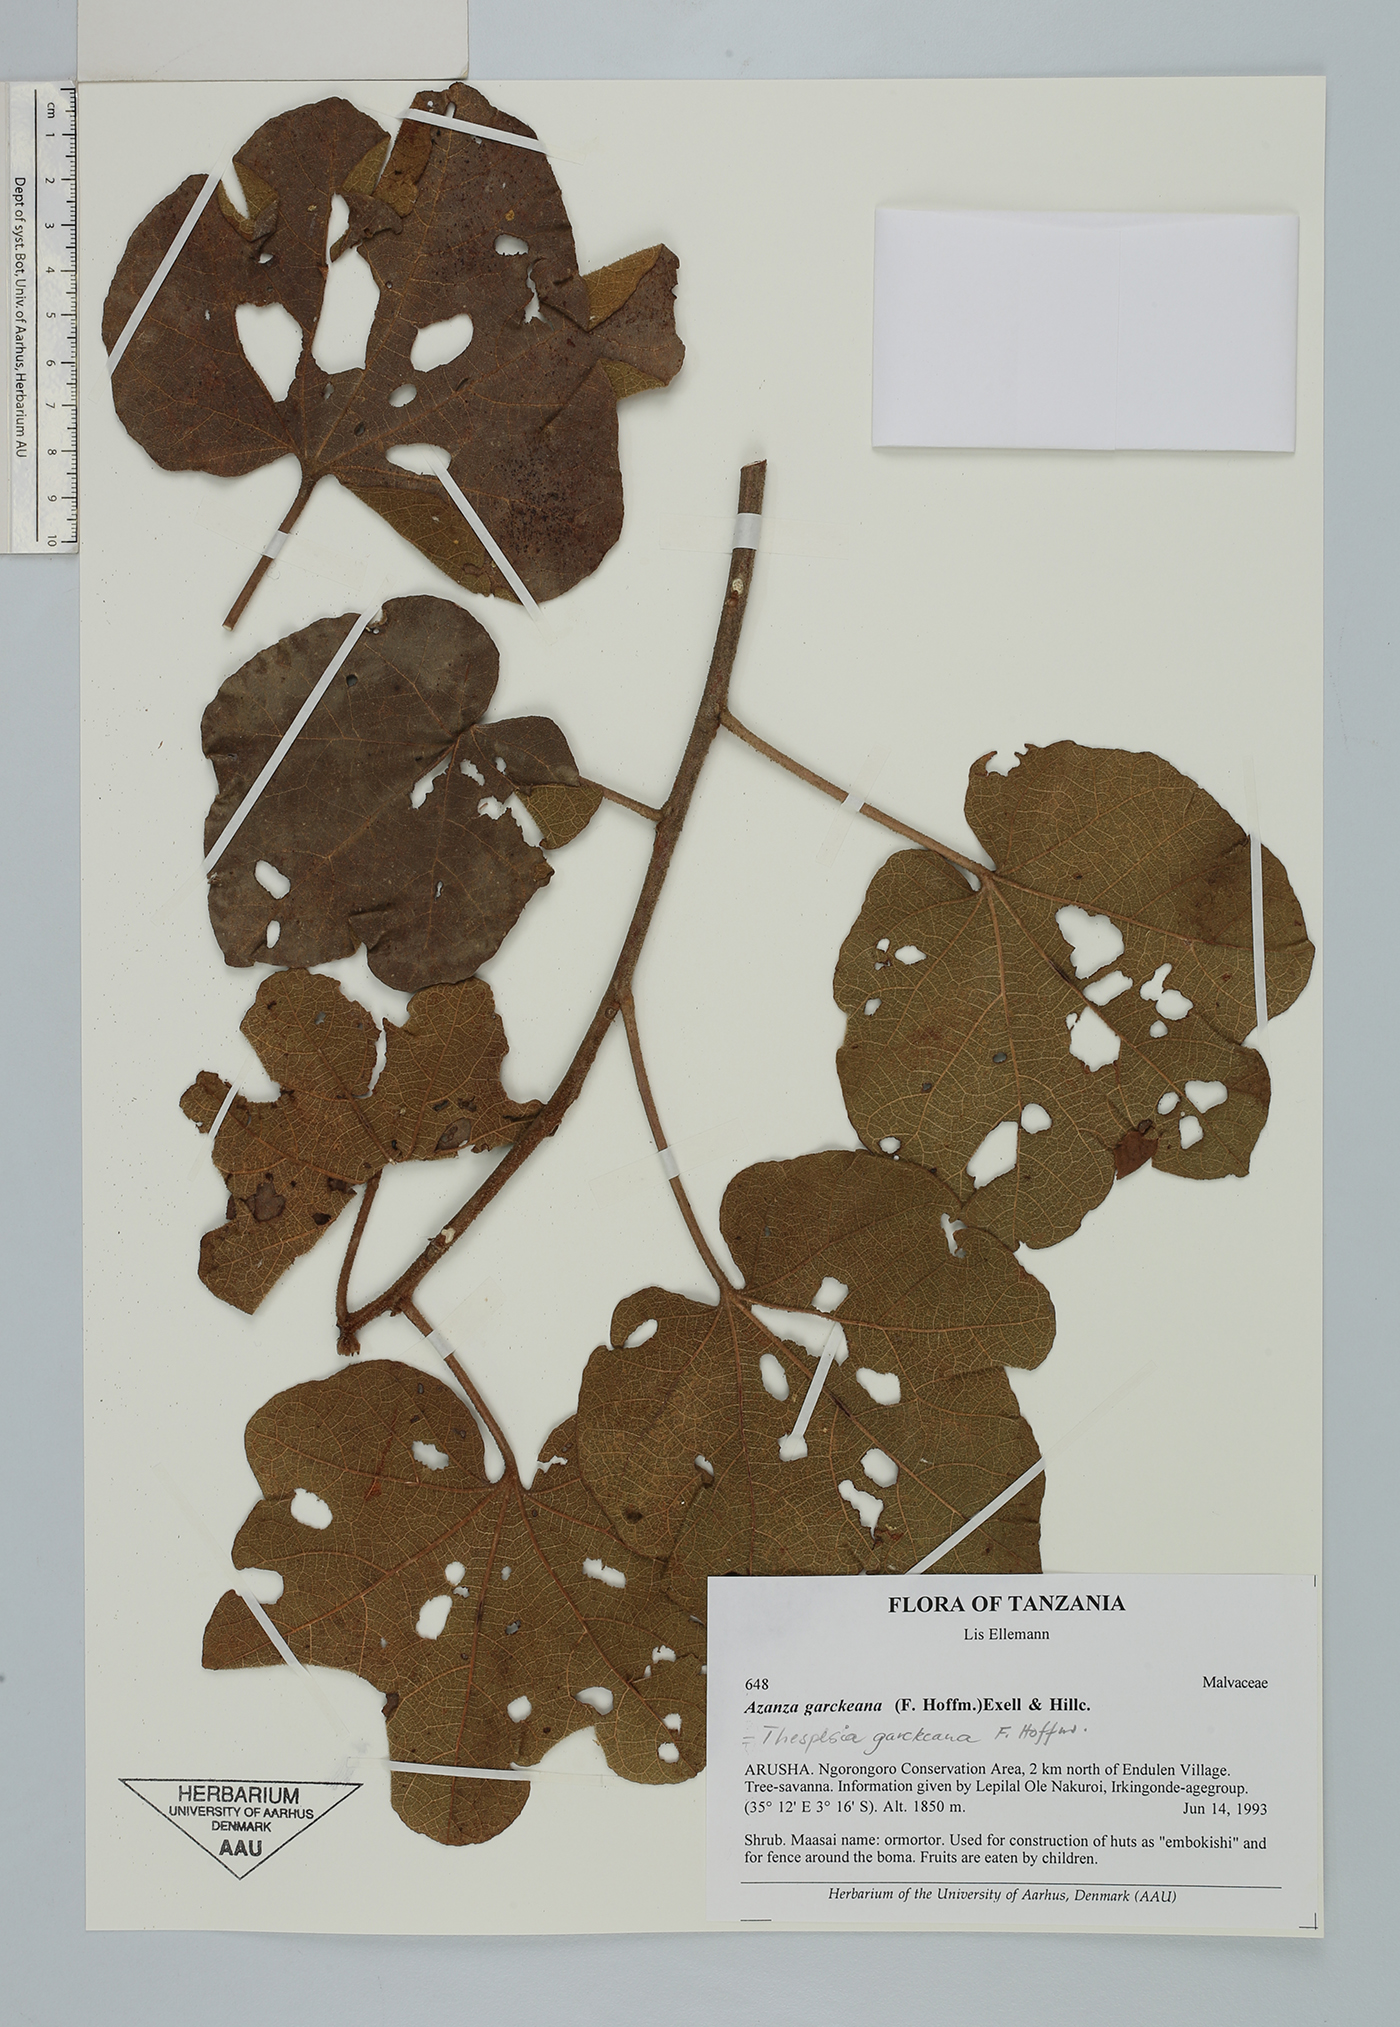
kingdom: Plantae
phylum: Tracheophyta
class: Magnoliopsida
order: Malvales
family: Malvaceae
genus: Thespesia
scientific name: Thespesia garckeana
